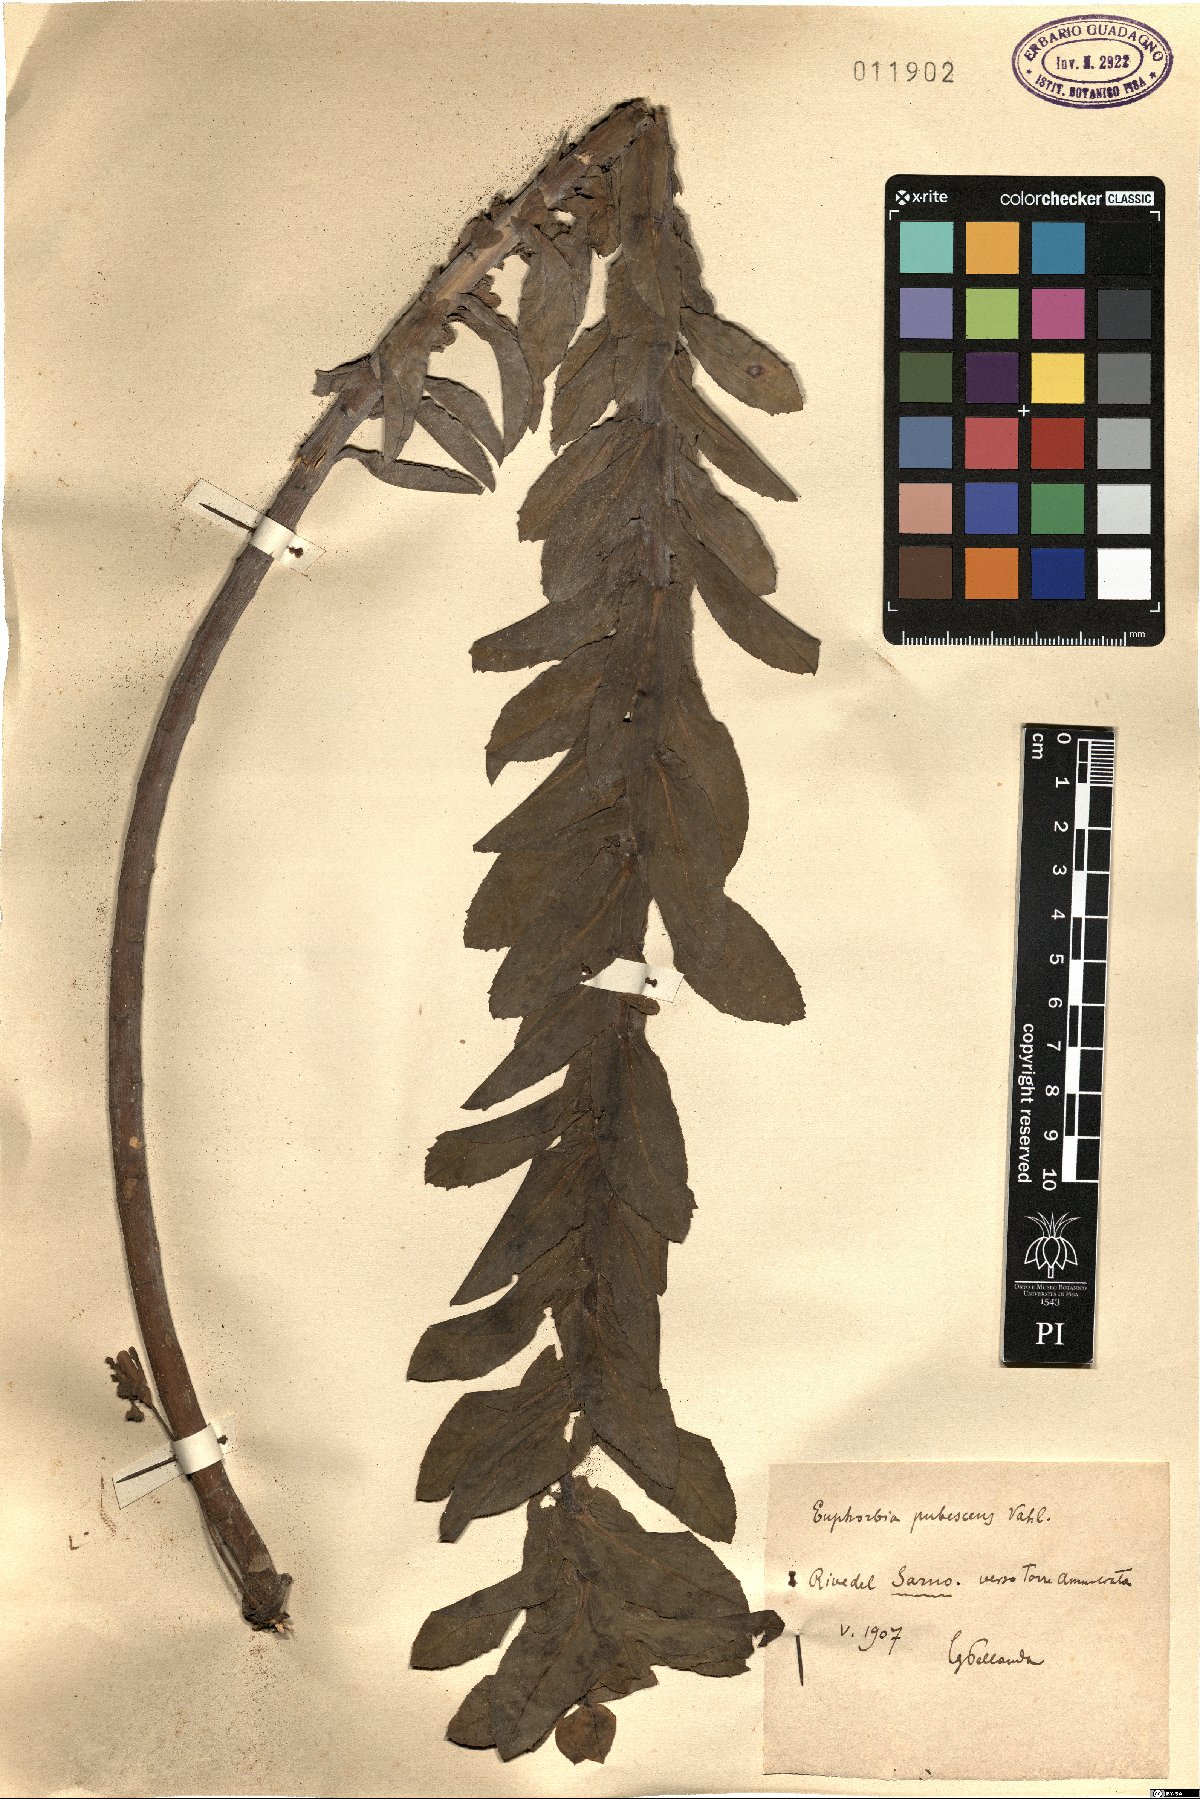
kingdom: Plantae
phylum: Tracheophyta
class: Magnoliopsida
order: Malpighiales
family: Euphorbiaceae
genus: Euphorbia
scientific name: Euphorbia hirsuta
